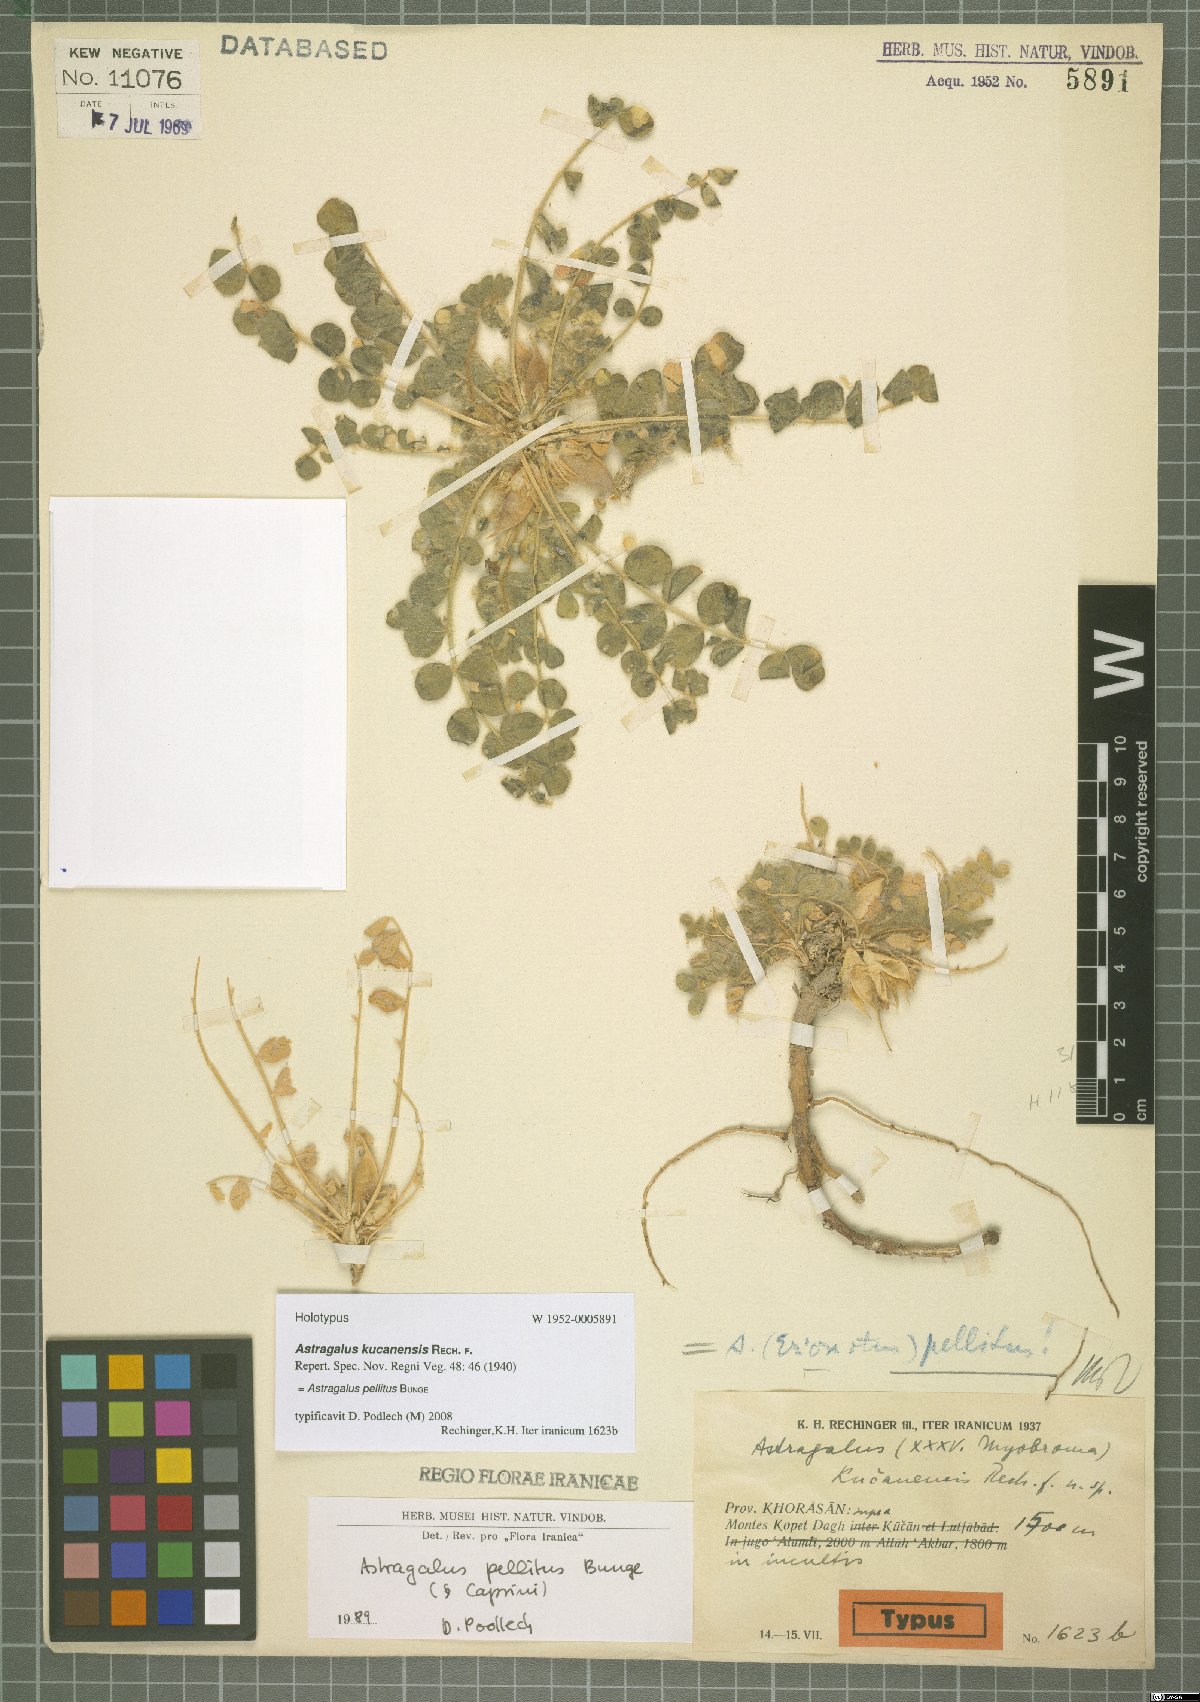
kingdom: Plantae
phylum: Tracheophyta
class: Magnoliopsida
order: Fabales
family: Fabaceae
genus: Astragalus
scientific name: Astragalus pellitus
